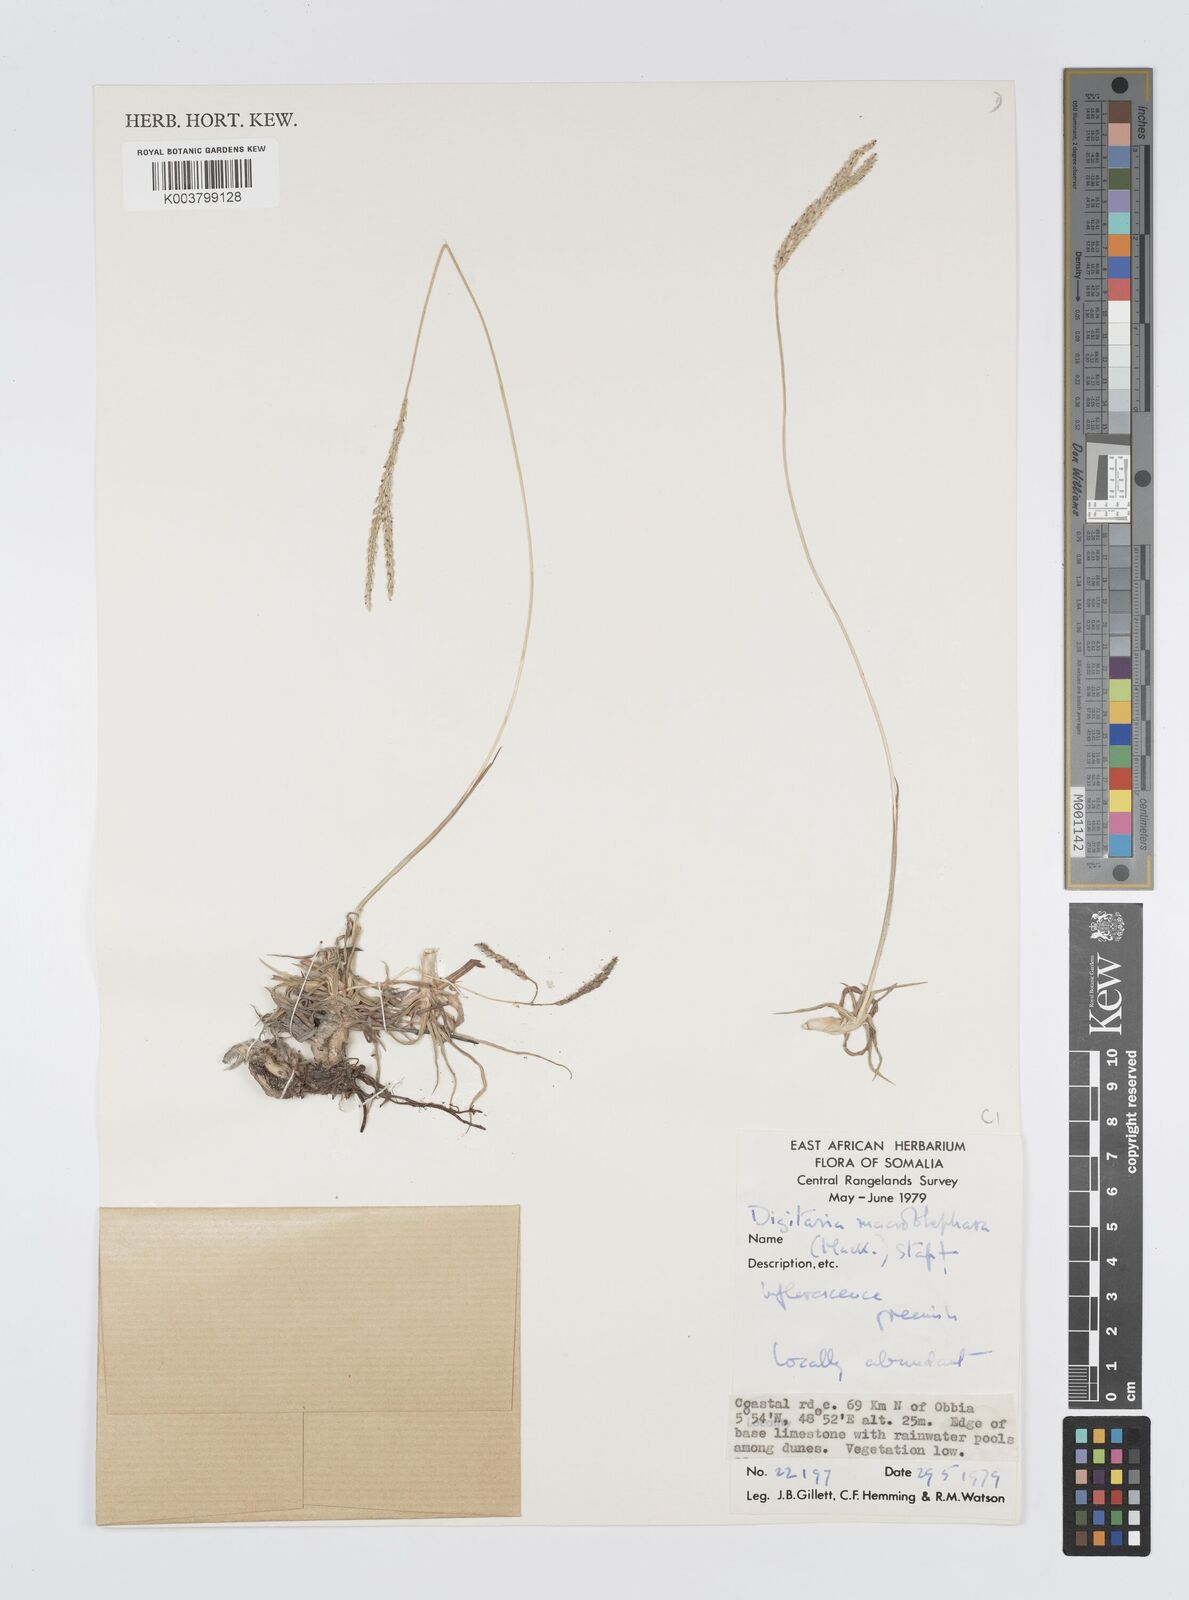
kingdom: Plantae
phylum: Tracheophyta
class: Liliopsida
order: Poales
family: Poaceae
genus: Digitaria
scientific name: Digitaria macroblephara
